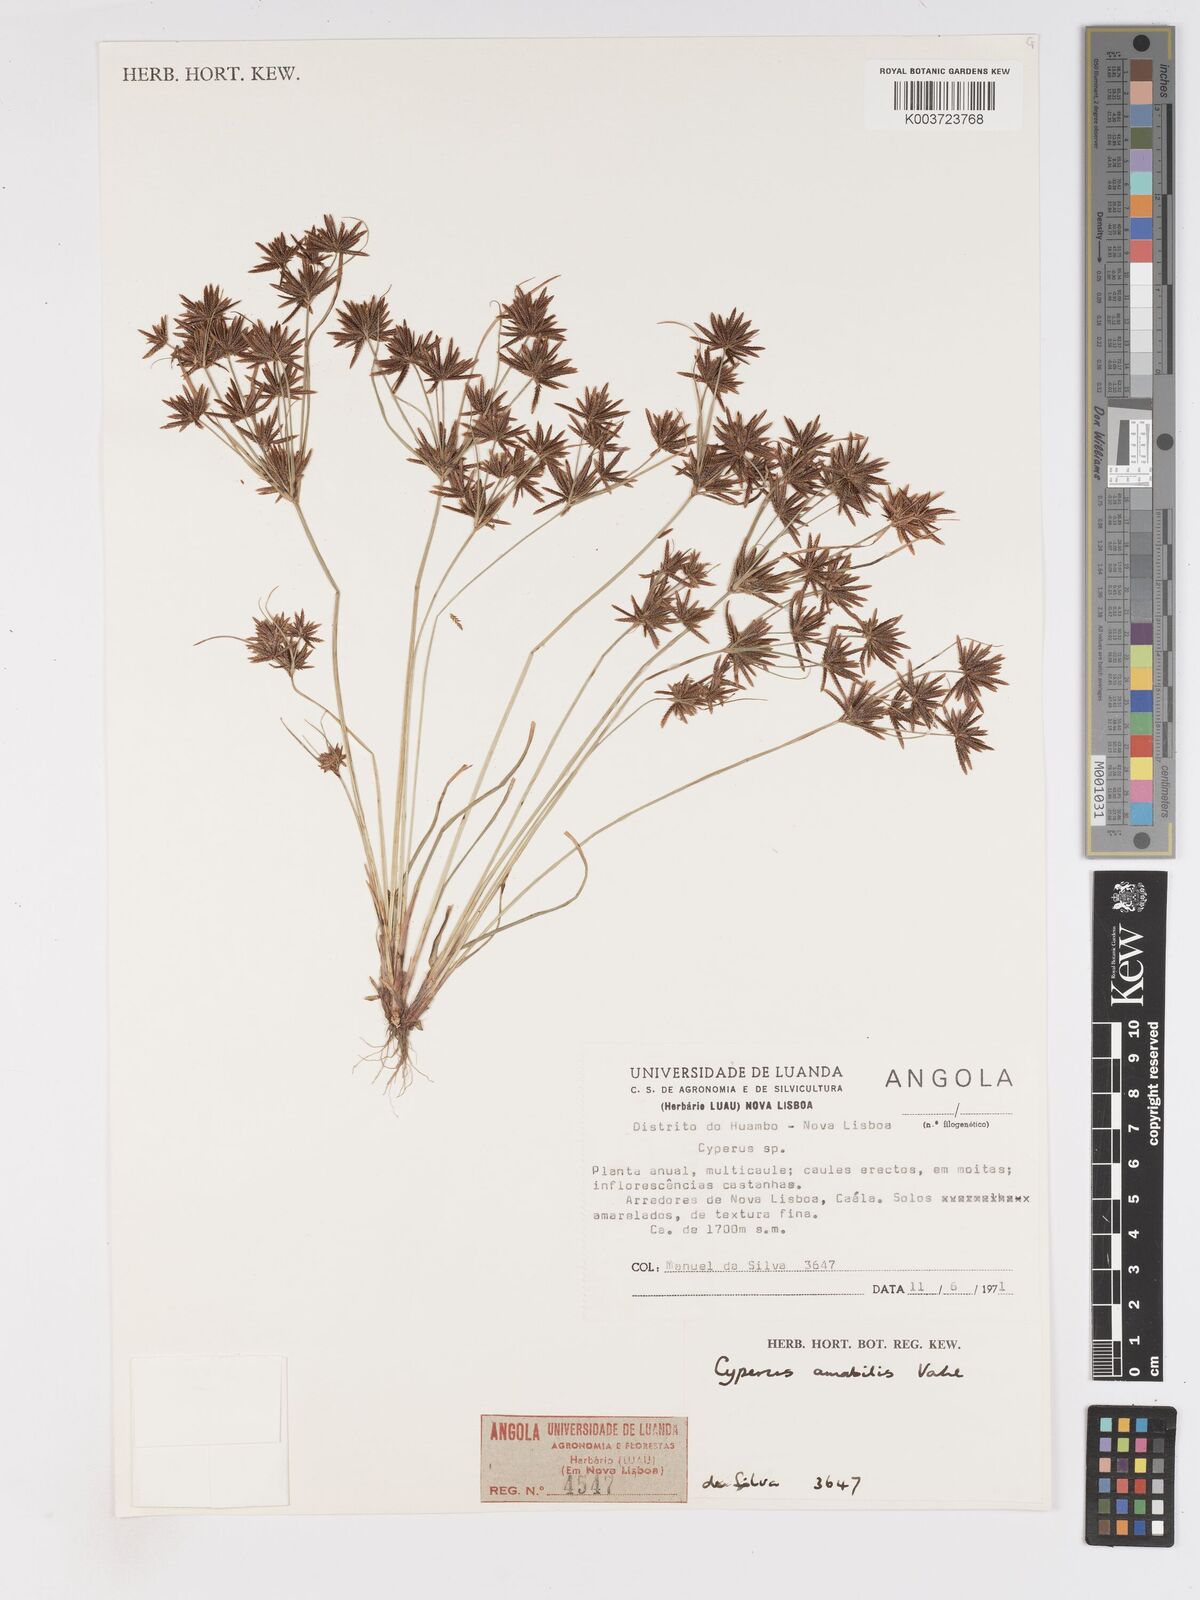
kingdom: Plantae
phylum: Tracheophyta
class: Liliopsida
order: Poales
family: Cyperaceae
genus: Cyperus
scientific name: Cyperus amabilis
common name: Foothill flat sedge
